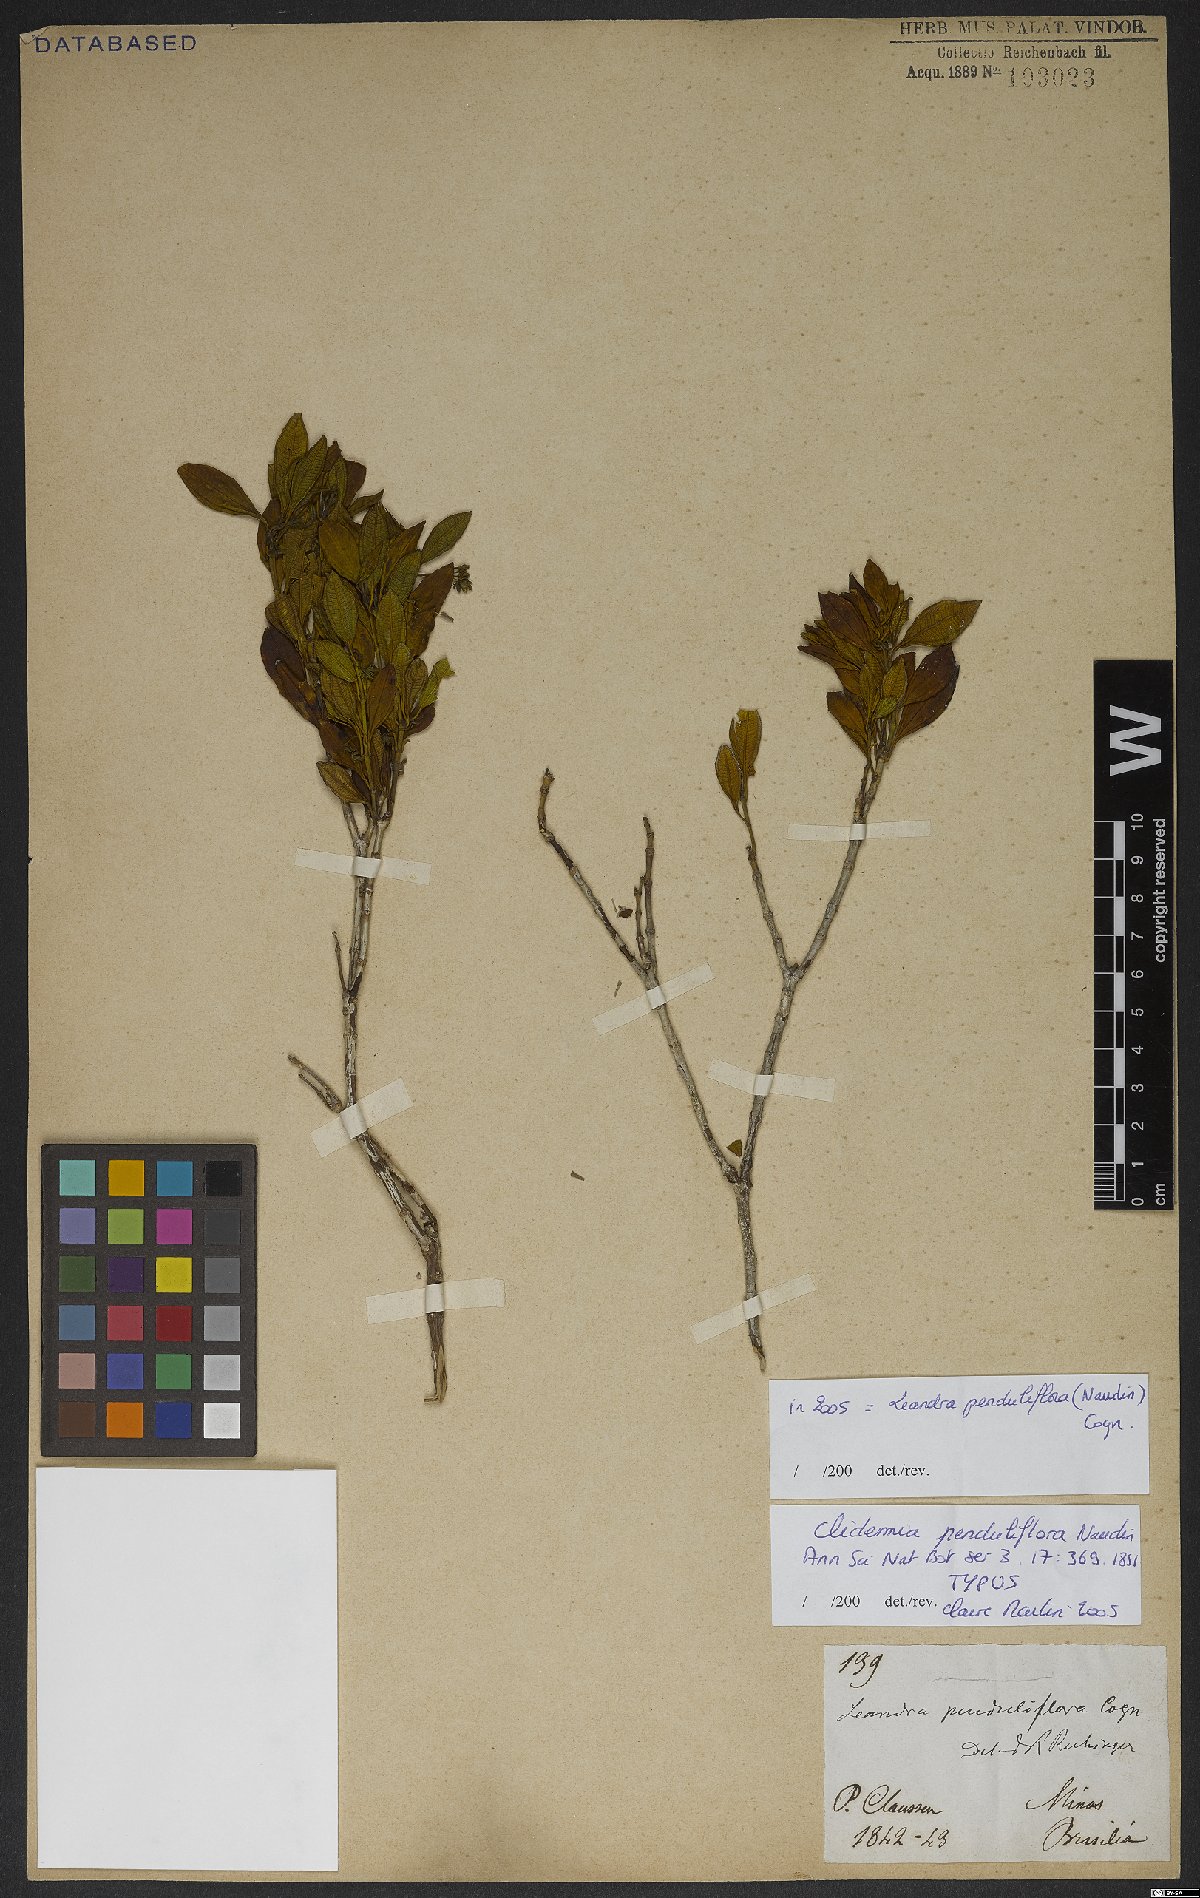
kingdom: Plantae
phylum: Tracheophyta
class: Magnoliopsida
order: Myrtales
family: Melastomataceae
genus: Miconia
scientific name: Miconia dolichodons
